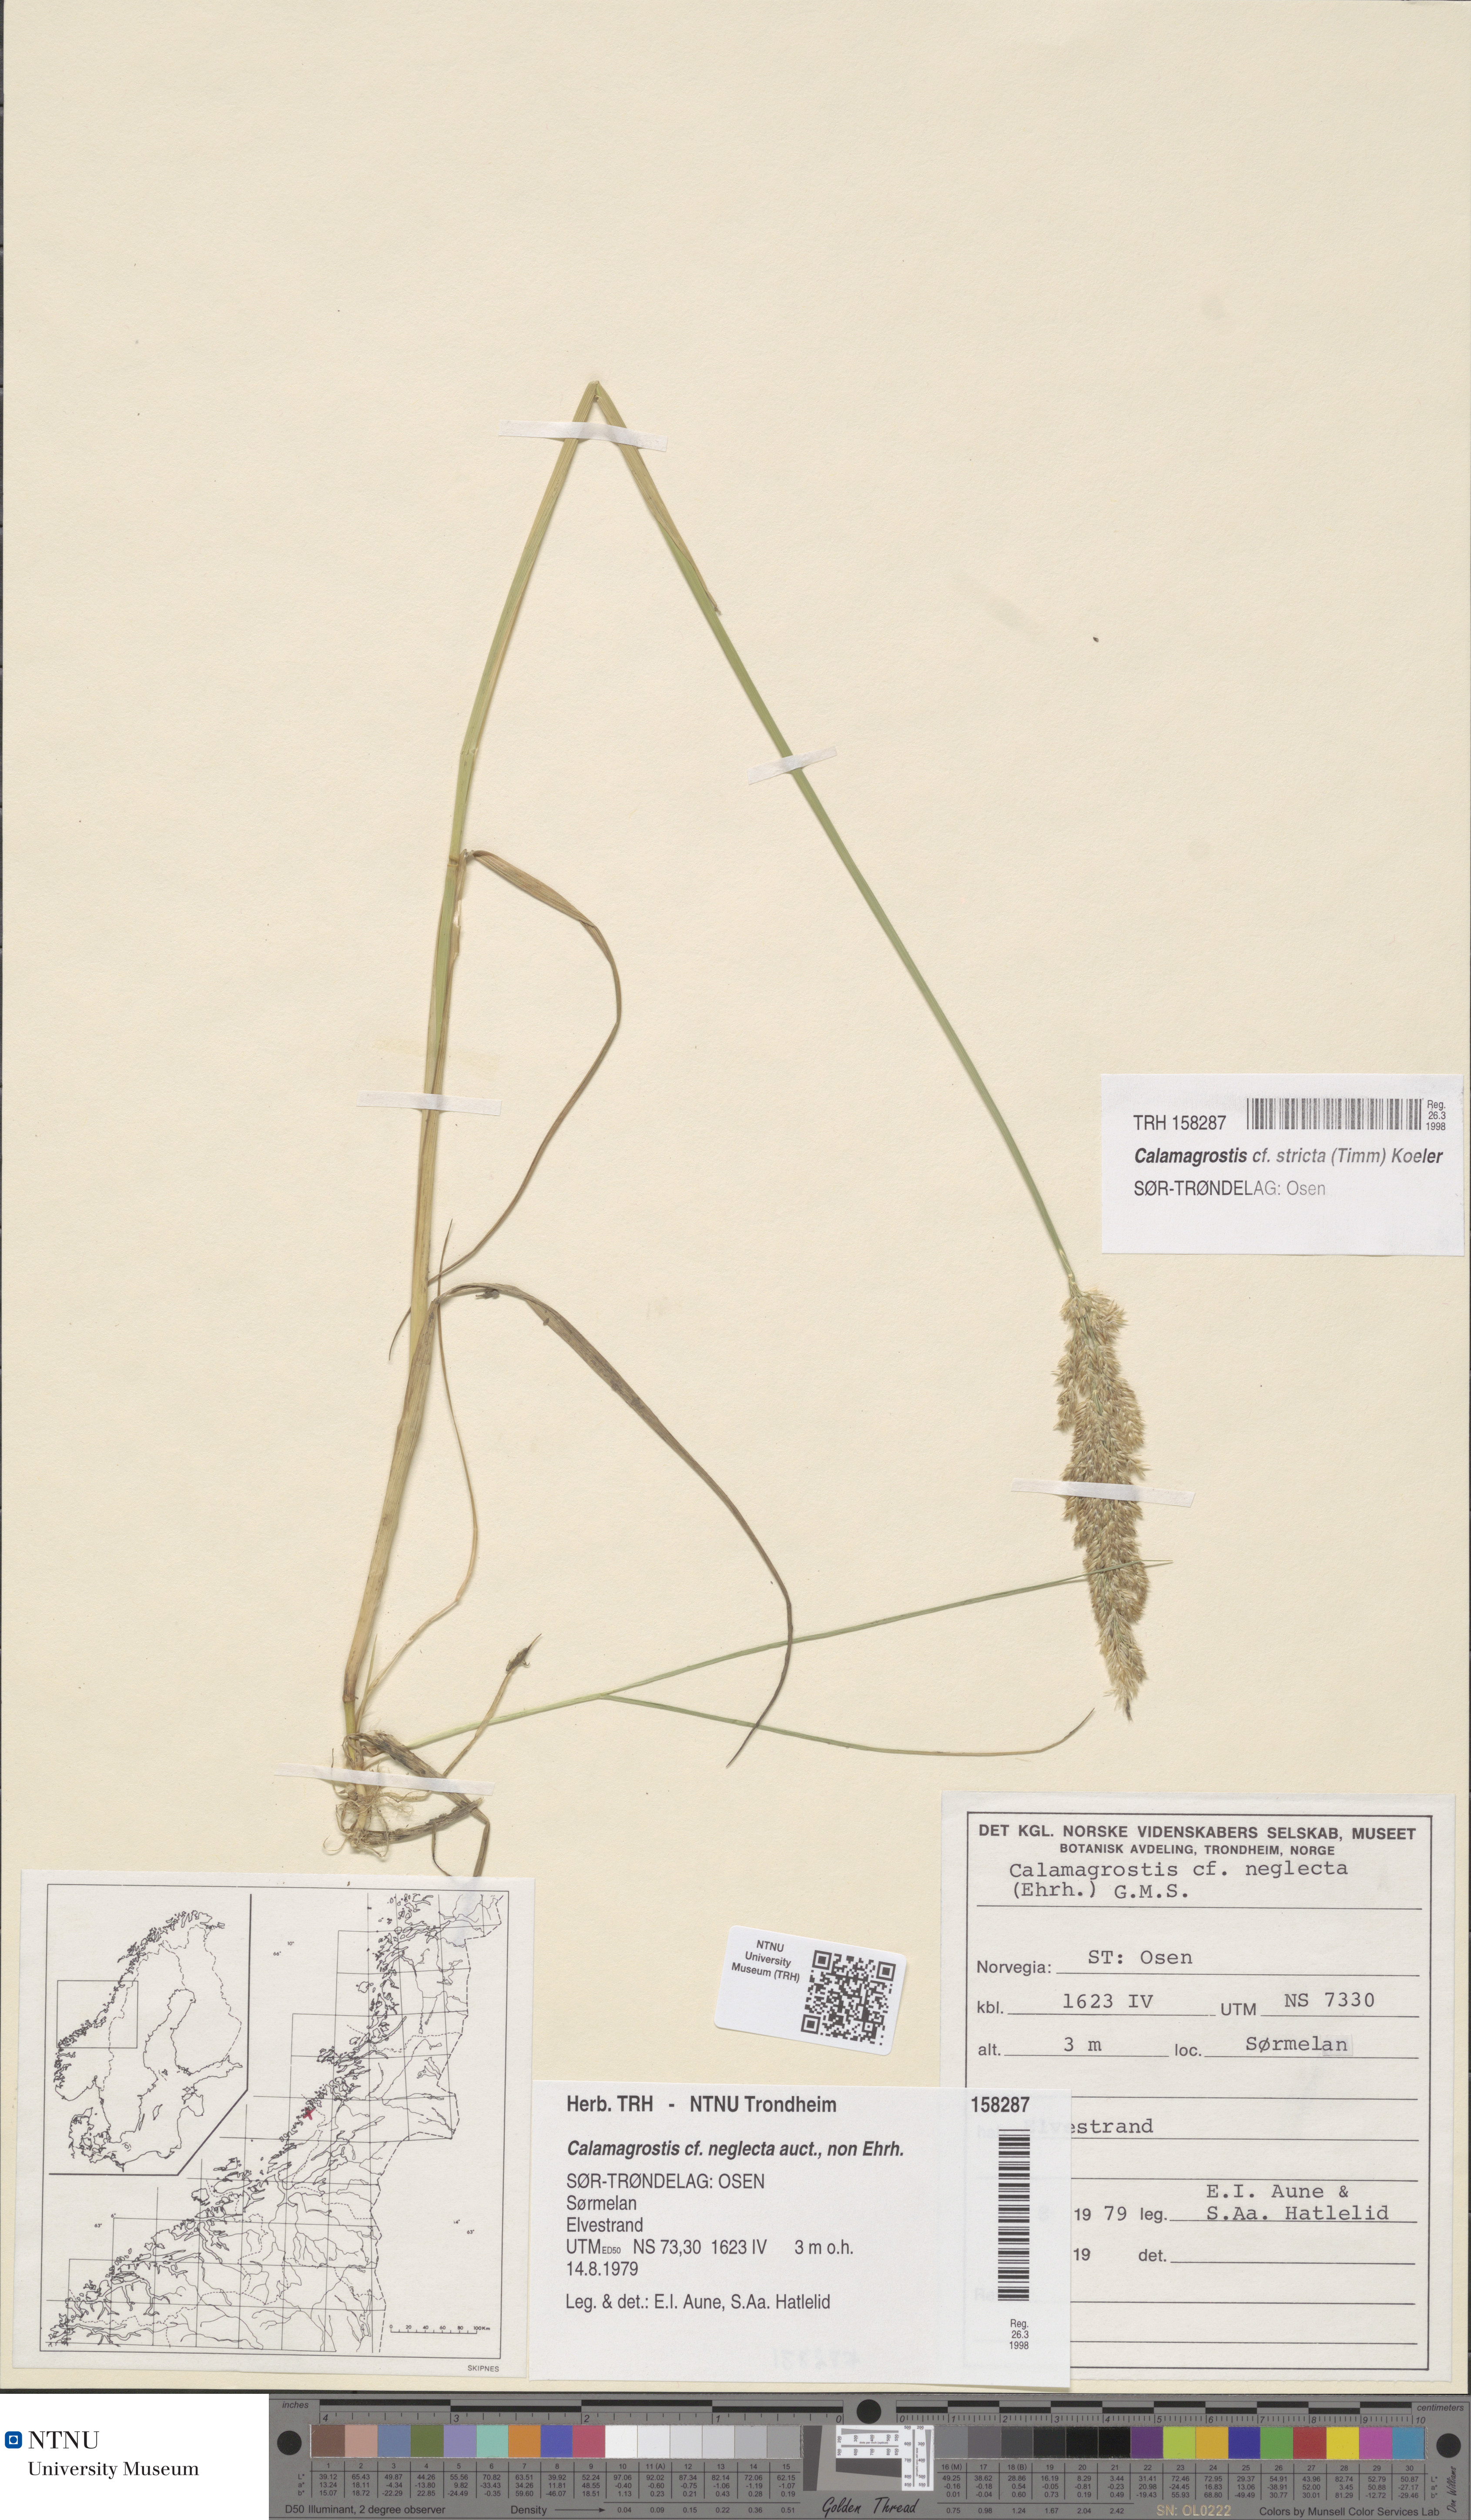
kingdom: Plantae
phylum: Tracheophyta
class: Liliopsida
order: Poales
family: Poaceae
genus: Achnatherum
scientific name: Achnatherum calamagrostis
